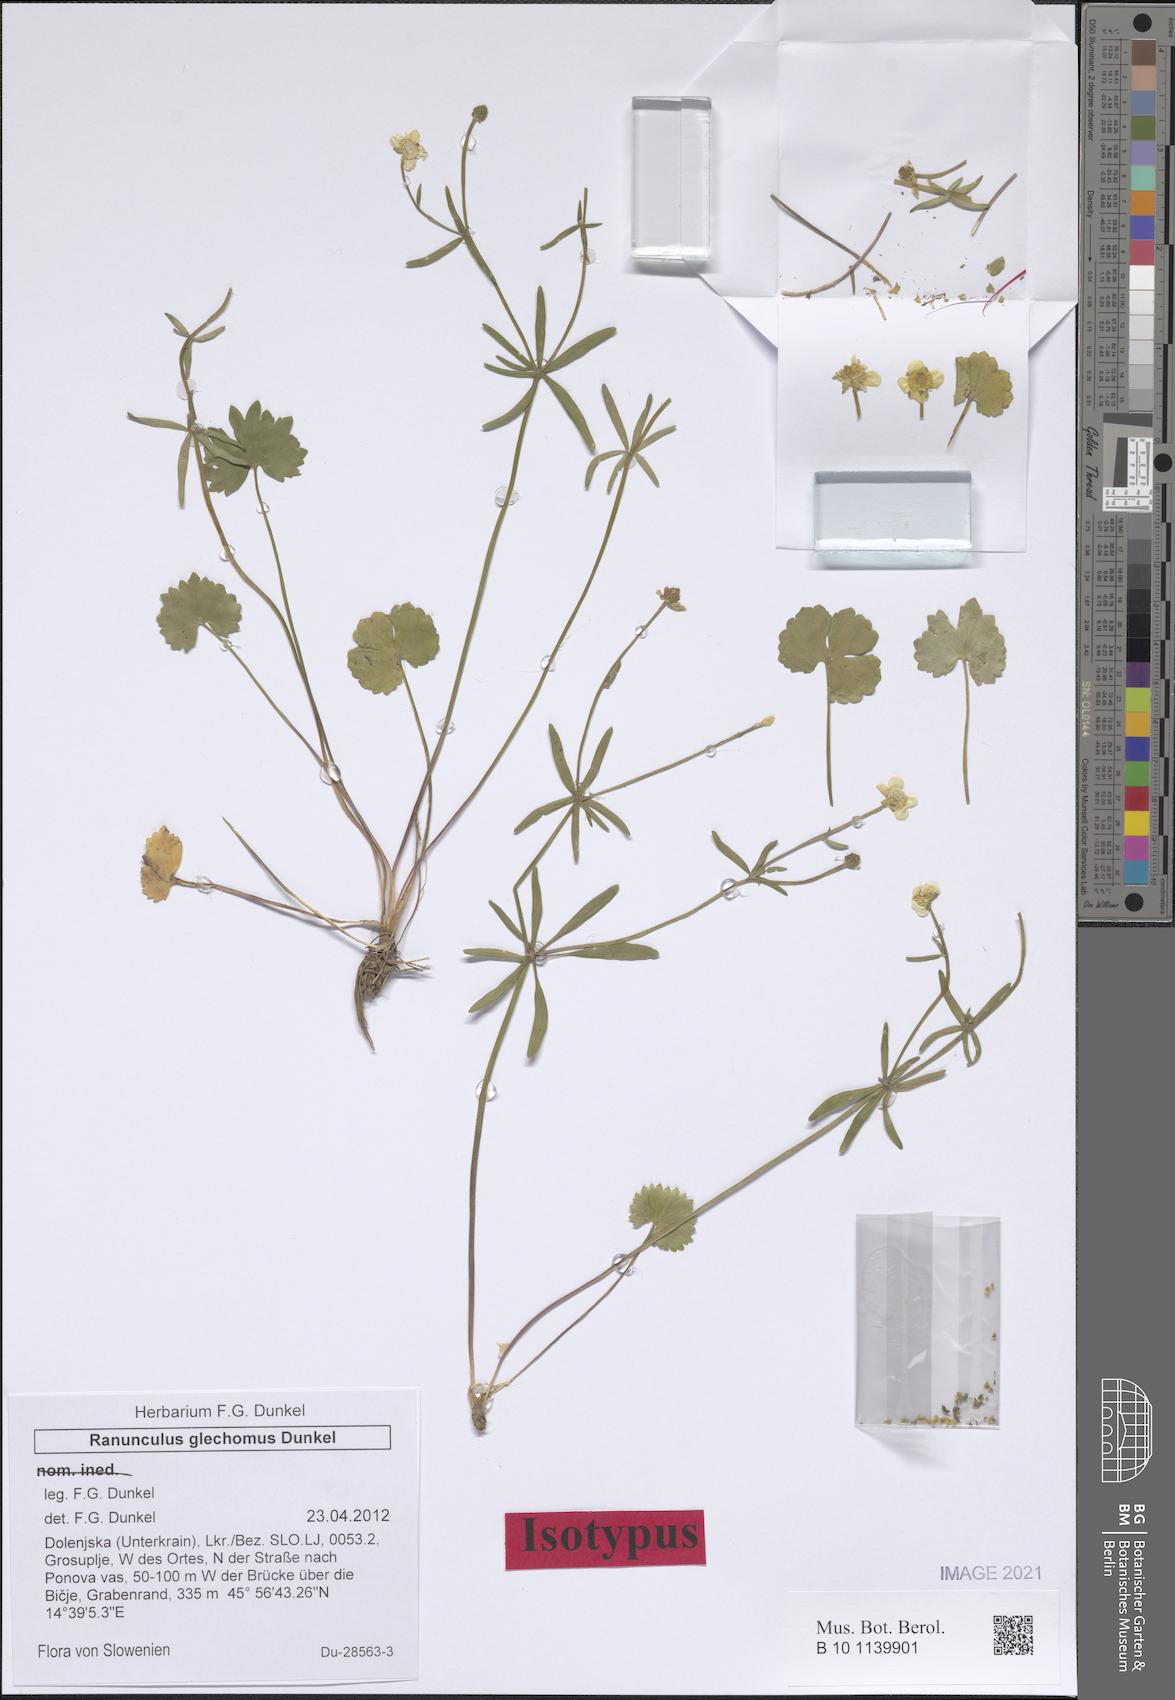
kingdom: Plantae
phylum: Tracheophyta
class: Magnoliopsida
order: Ranunculales
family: Ranunculaceae
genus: Ranunculus
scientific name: Ranunculus glechomus
